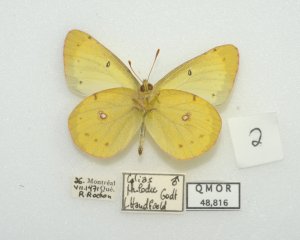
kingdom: Animalia
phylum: Arthropoda
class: Insecta
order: Lepidoptera
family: Pieridae
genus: Colias
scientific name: Colias philodice
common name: Clouded Sulphur
